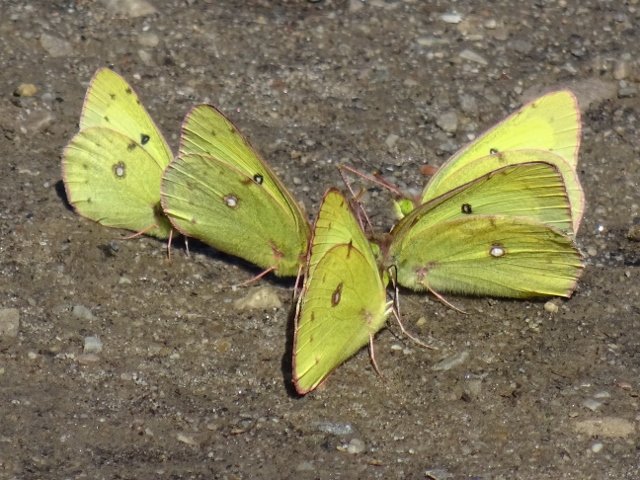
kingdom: Animalia
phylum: Arthropoda
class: Insecta
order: Lepidoptera
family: Pieridae
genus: Colias
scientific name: Colias philodice
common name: Clouded Sulphur
